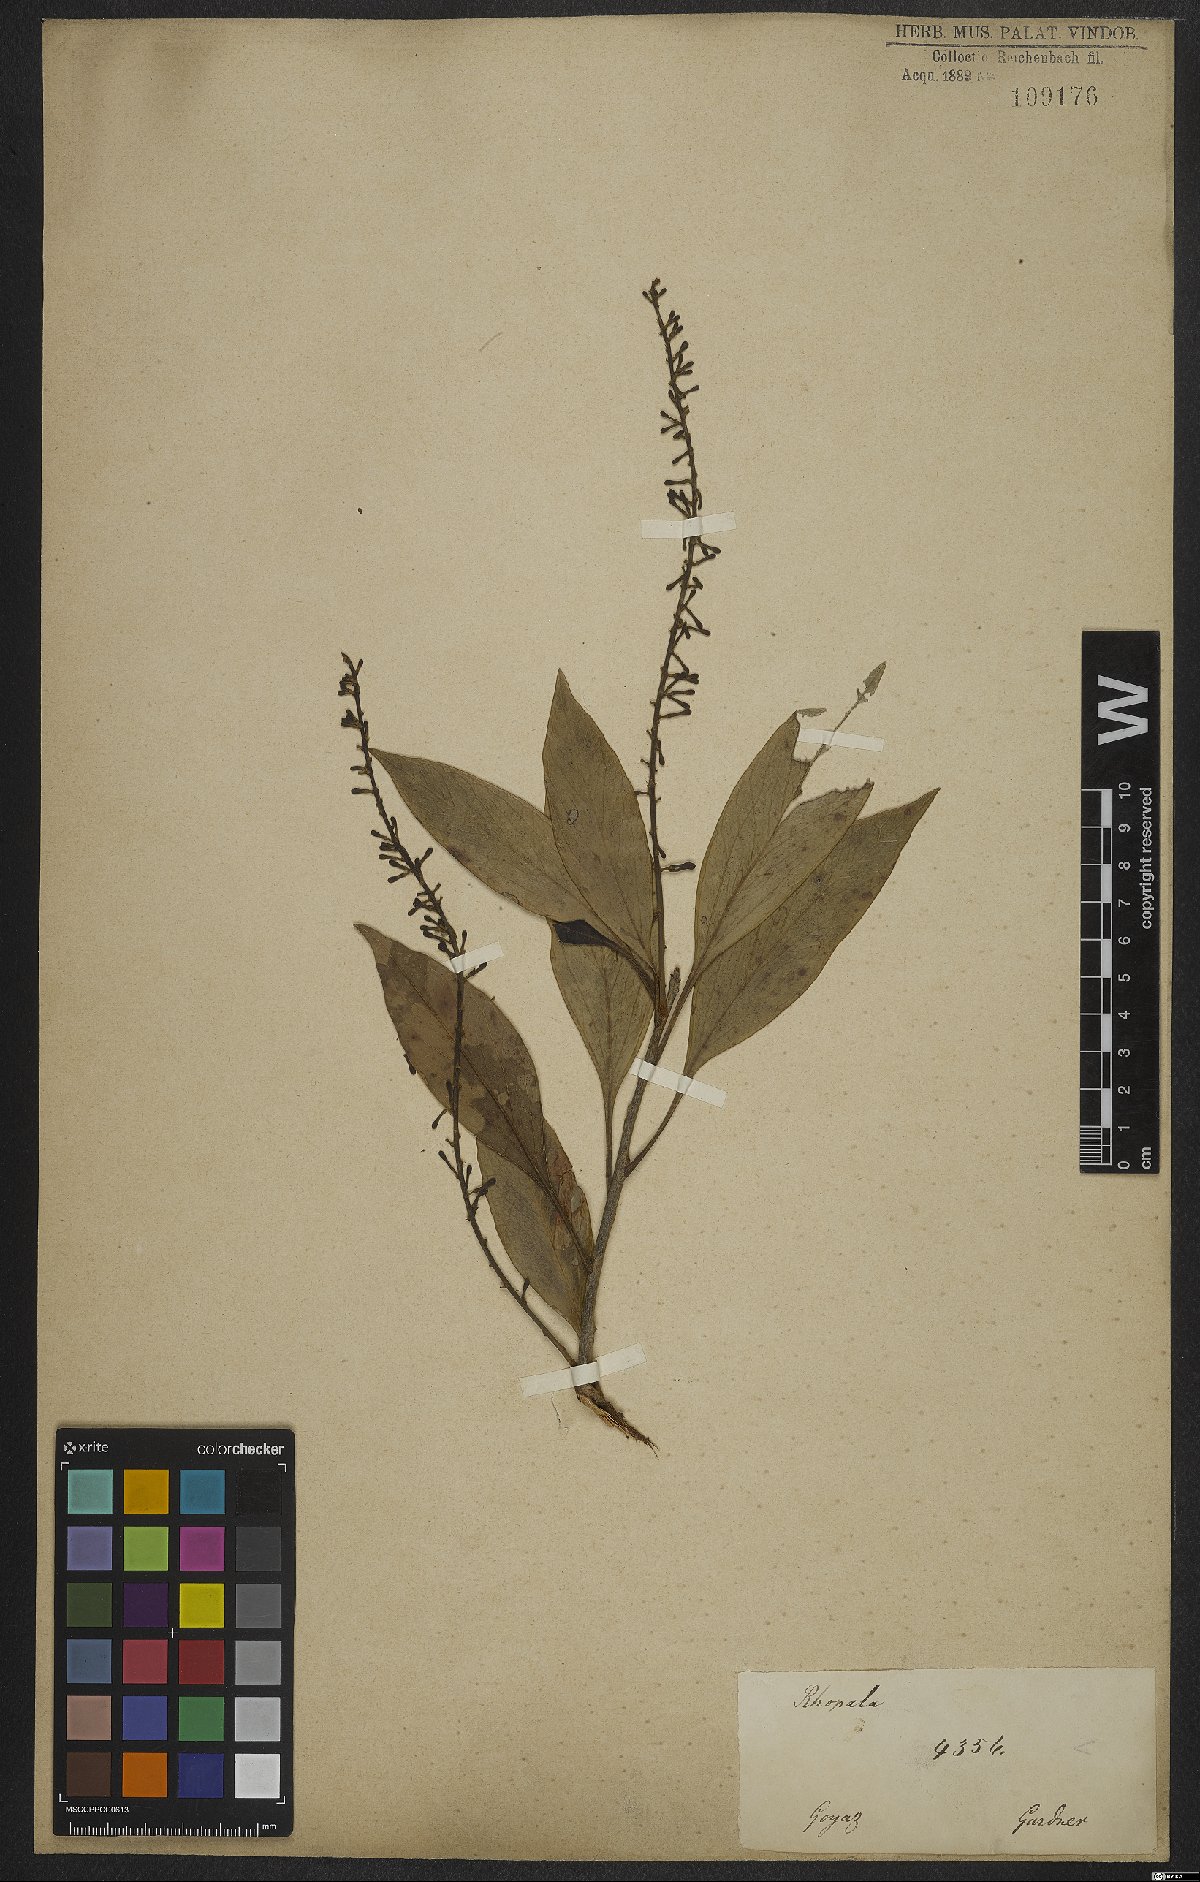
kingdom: Plantae
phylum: Tracheophyta
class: Magnoliopsida
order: Proteales
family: Proteaceae
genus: Roupala
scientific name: Roupala montana
